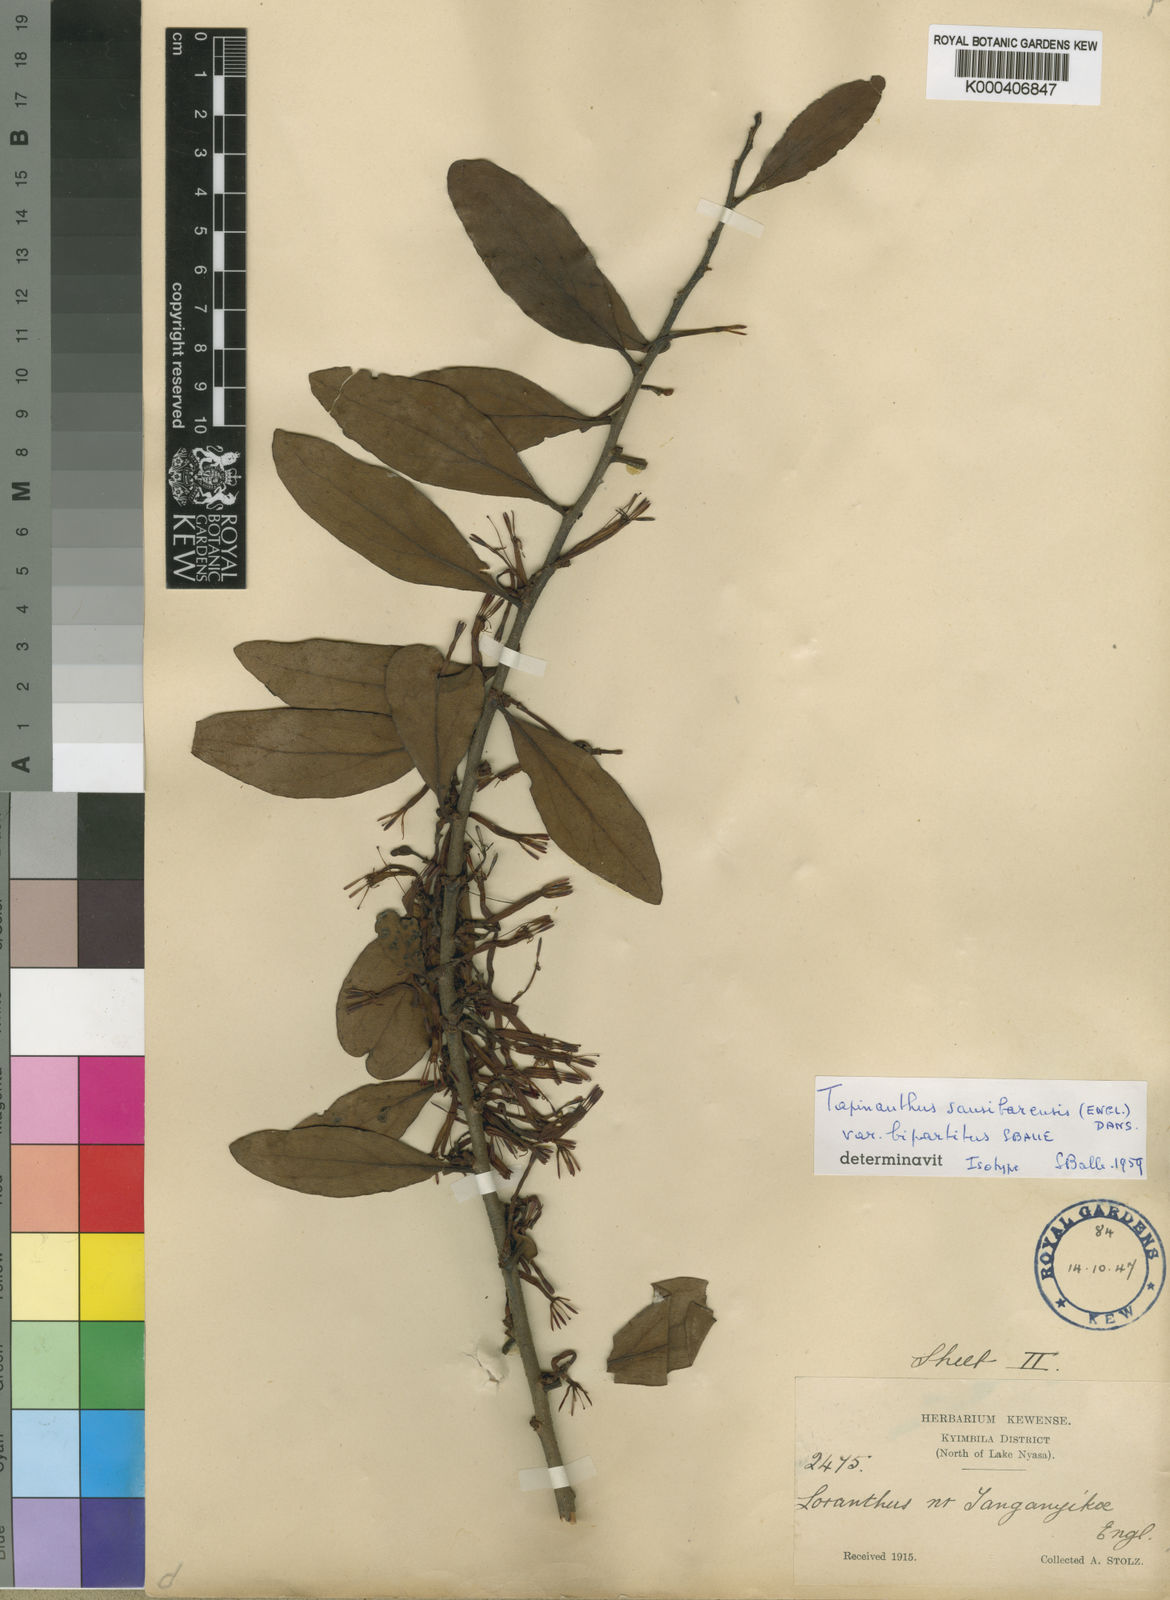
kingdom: Plantae
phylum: Tracheophyta
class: Magnoliopsida
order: Santalales
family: Loranthaceae
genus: Agelanthus
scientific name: Agelanthus bipartitus
